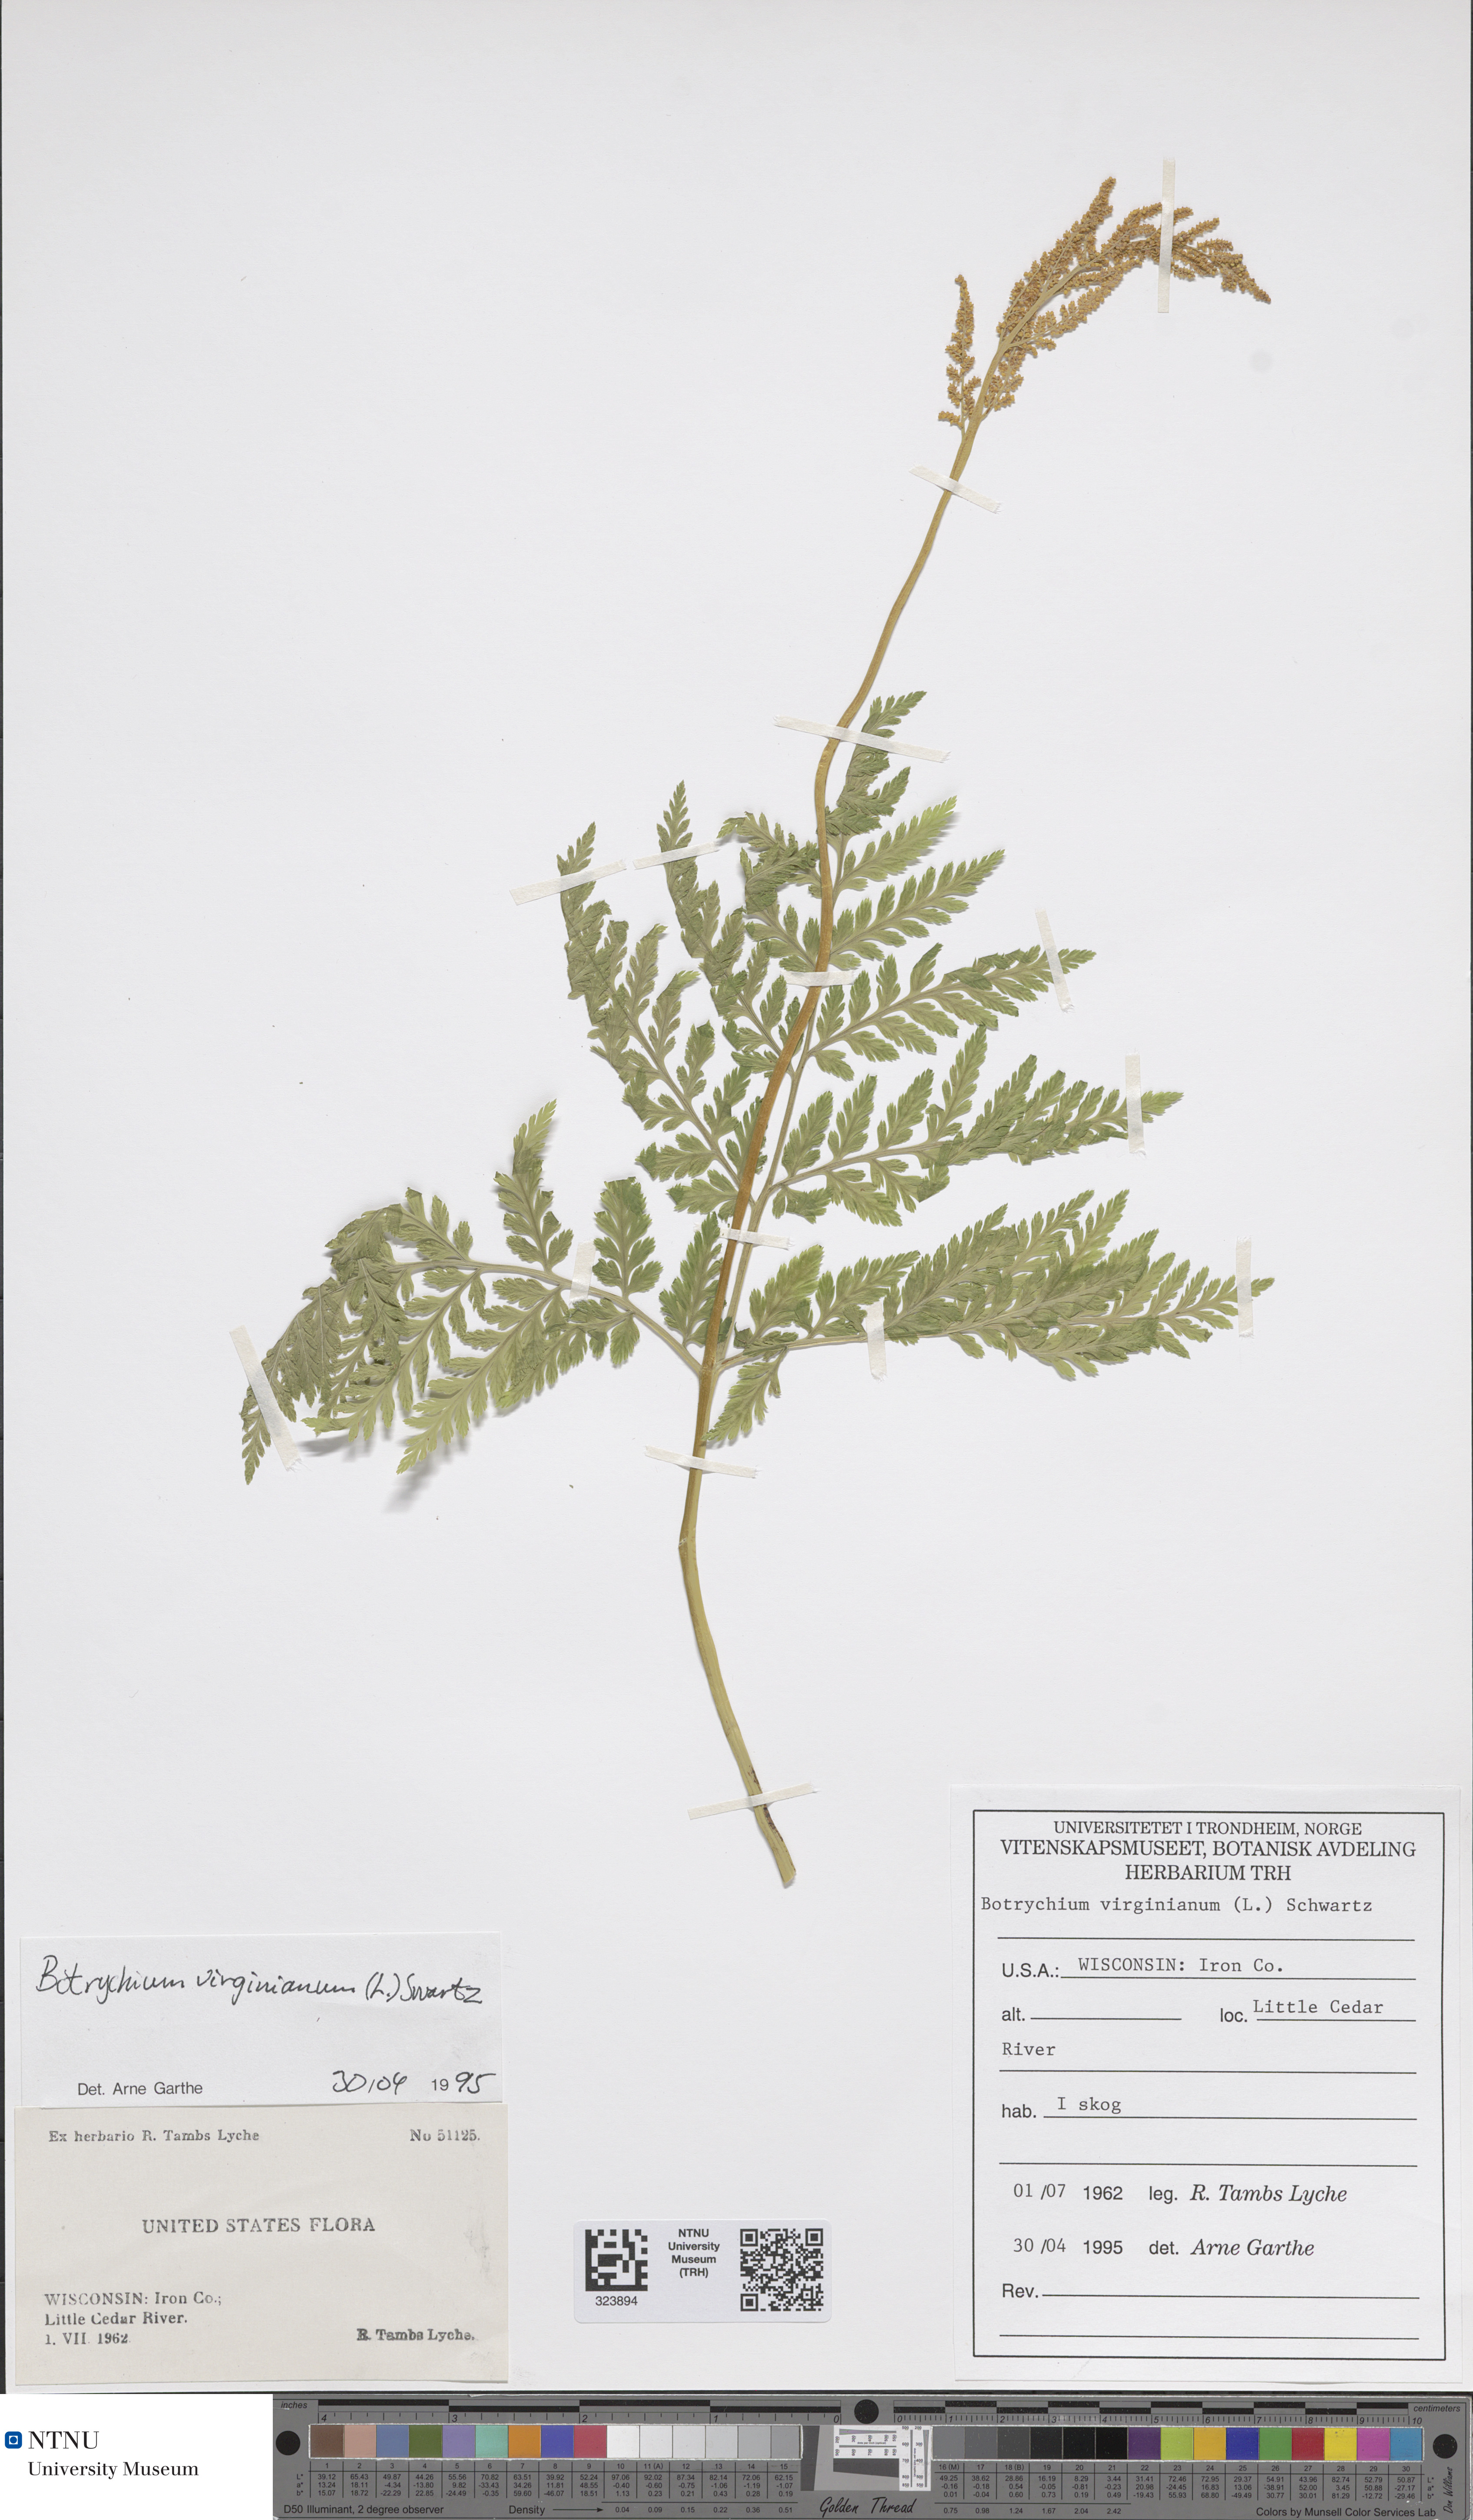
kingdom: Plantae
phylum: Tracheophyta
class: Polypodiopsida
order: Ophioglossales
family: Ophioglossaceae
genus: Botrypus
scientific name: Botrypus virginianus
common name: Common grapefern
